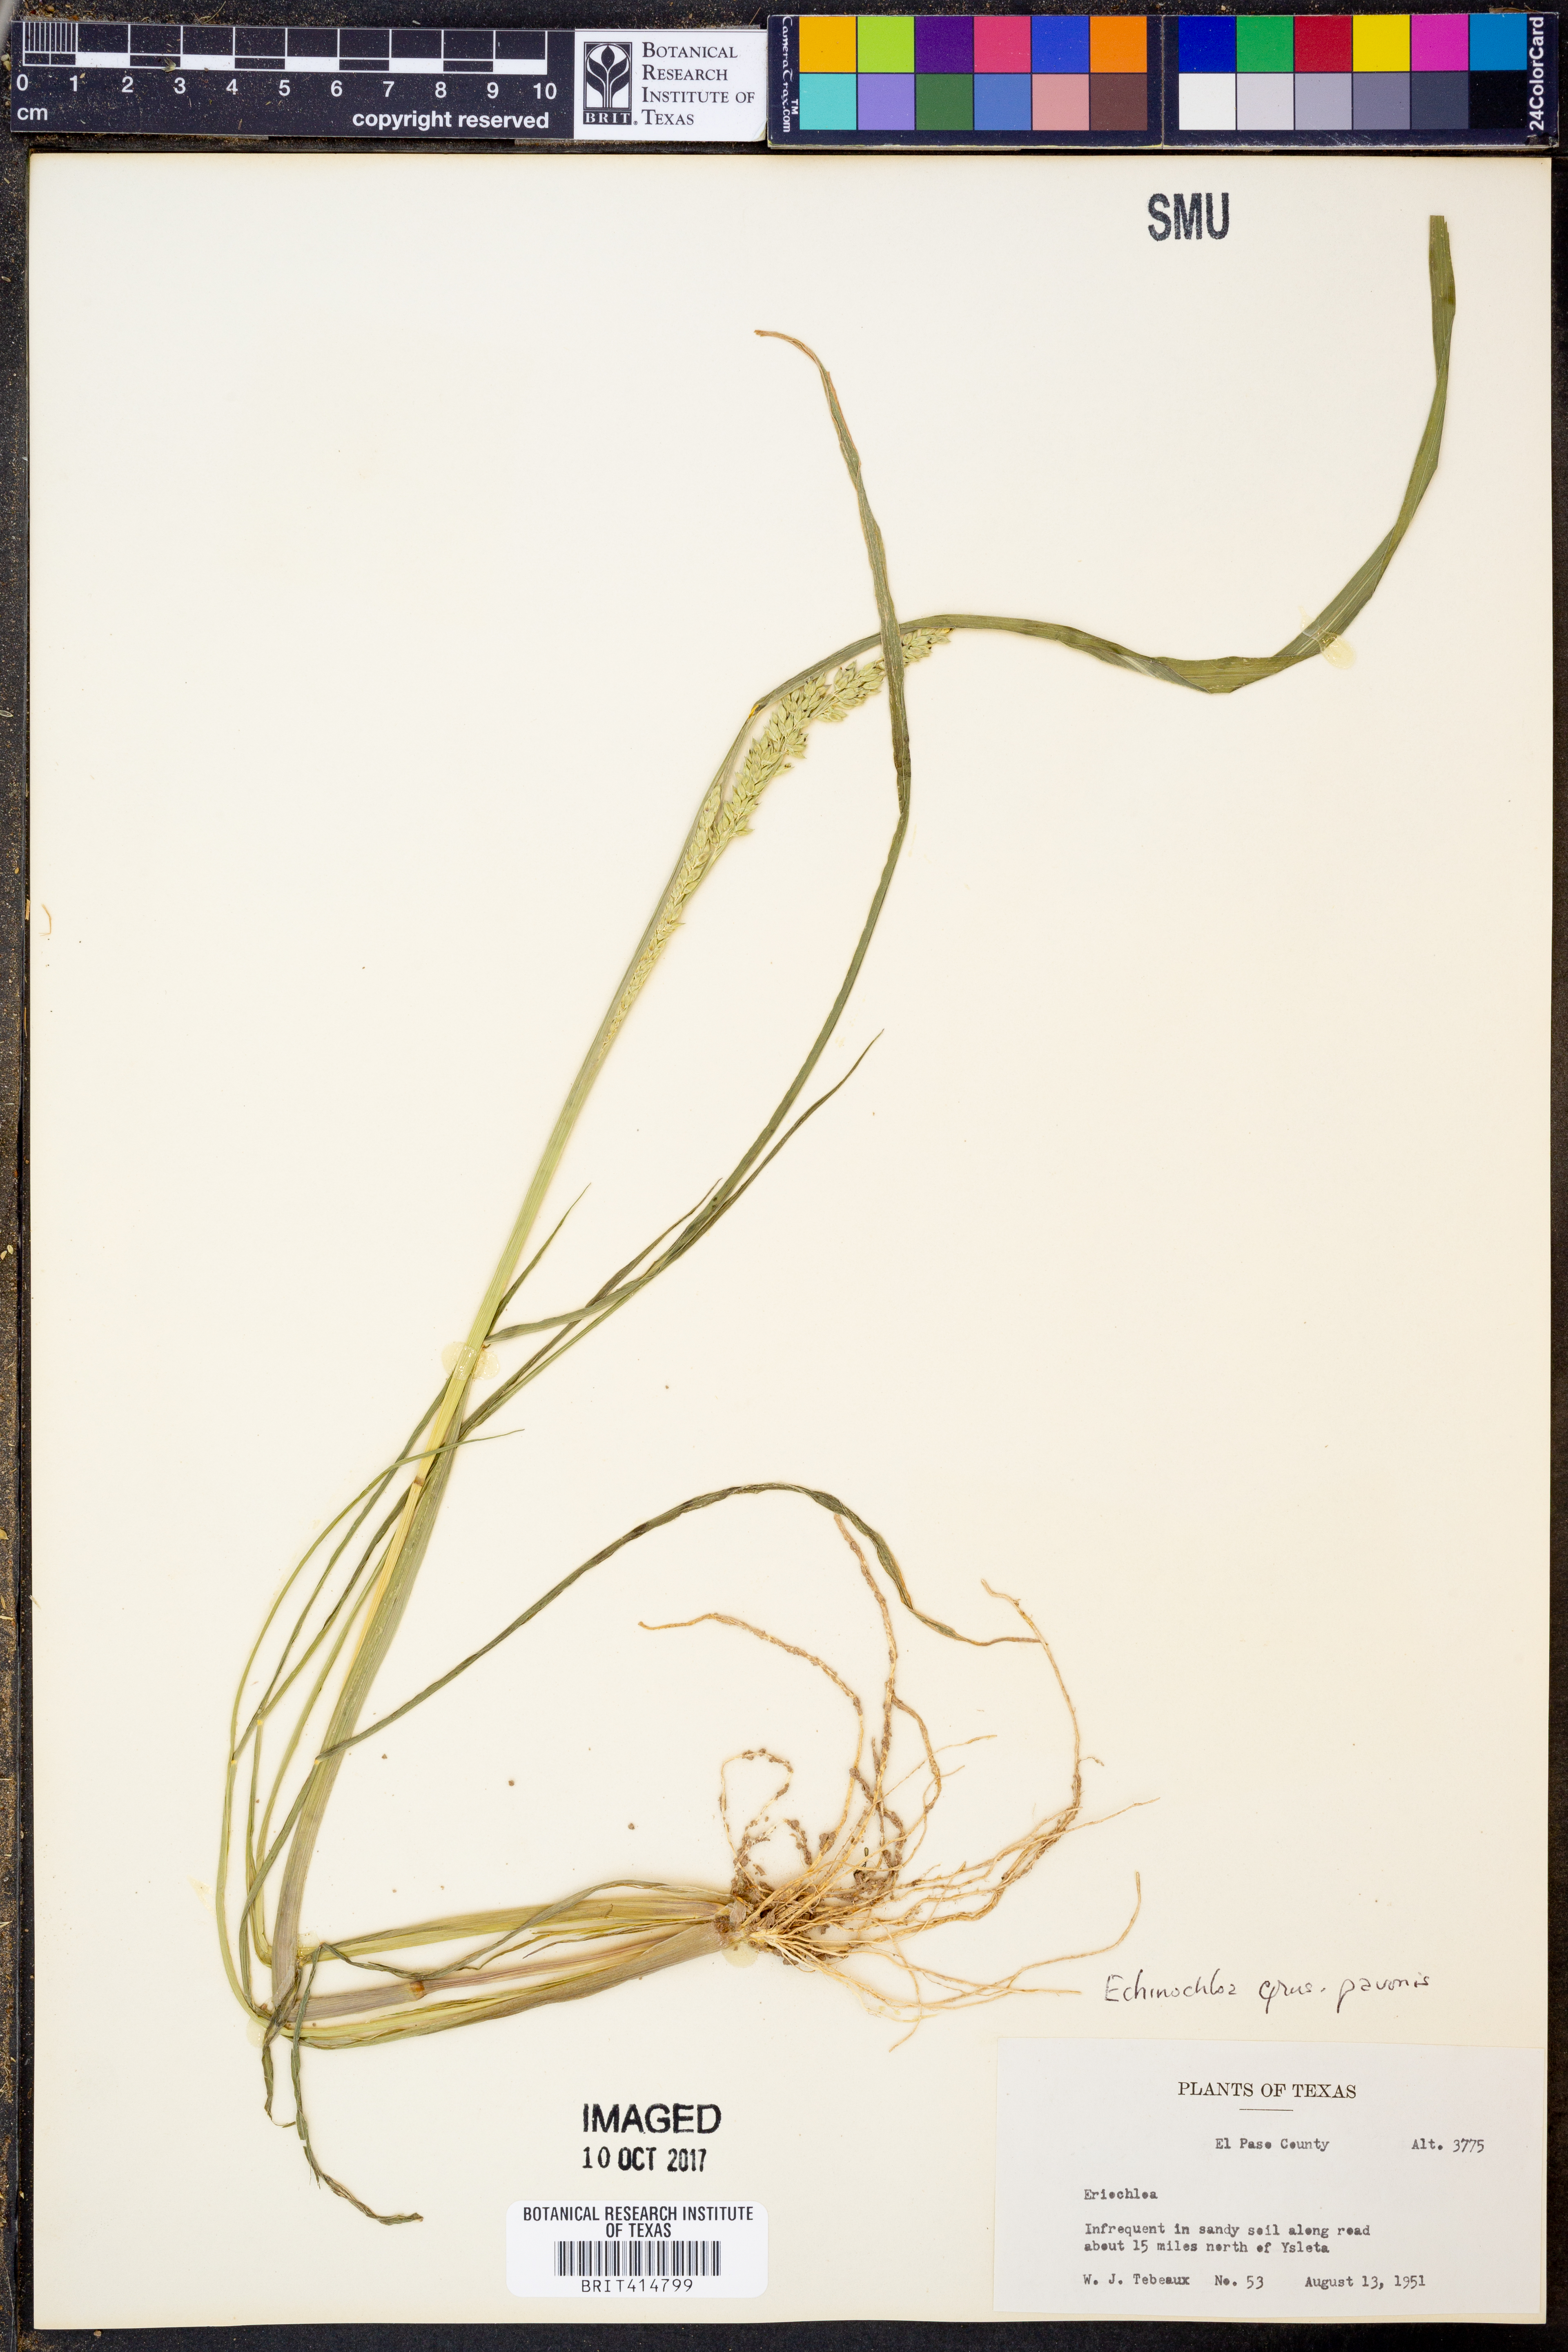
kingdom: Plantae
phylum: Tracheophyta
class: Liliopsida
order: Poales
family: Poaceae
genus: Echinochloa
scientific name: Echinochloa
